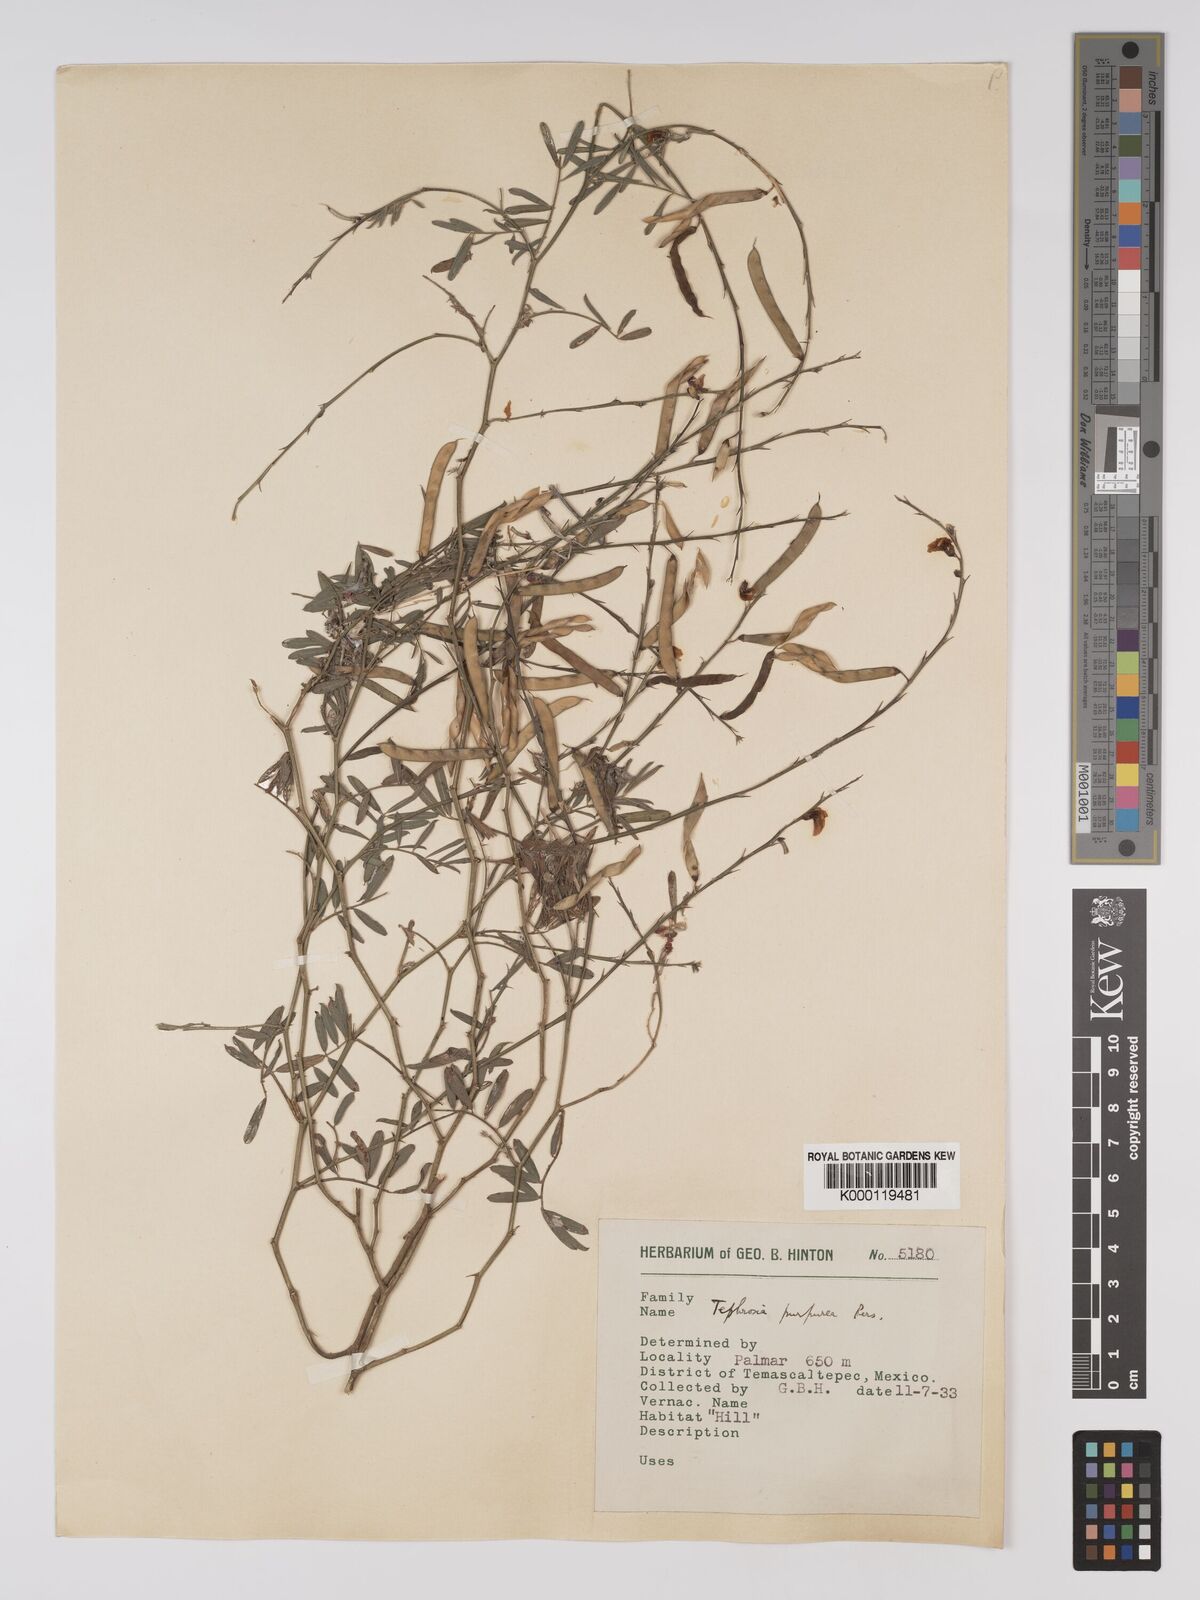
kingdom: Plantae
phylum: Tracheophyta
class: Magnoliopsida
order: Fabales
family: Fabaceae
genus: Tephrosia
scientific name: Tephrosia purpurea
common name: Fishpoison
